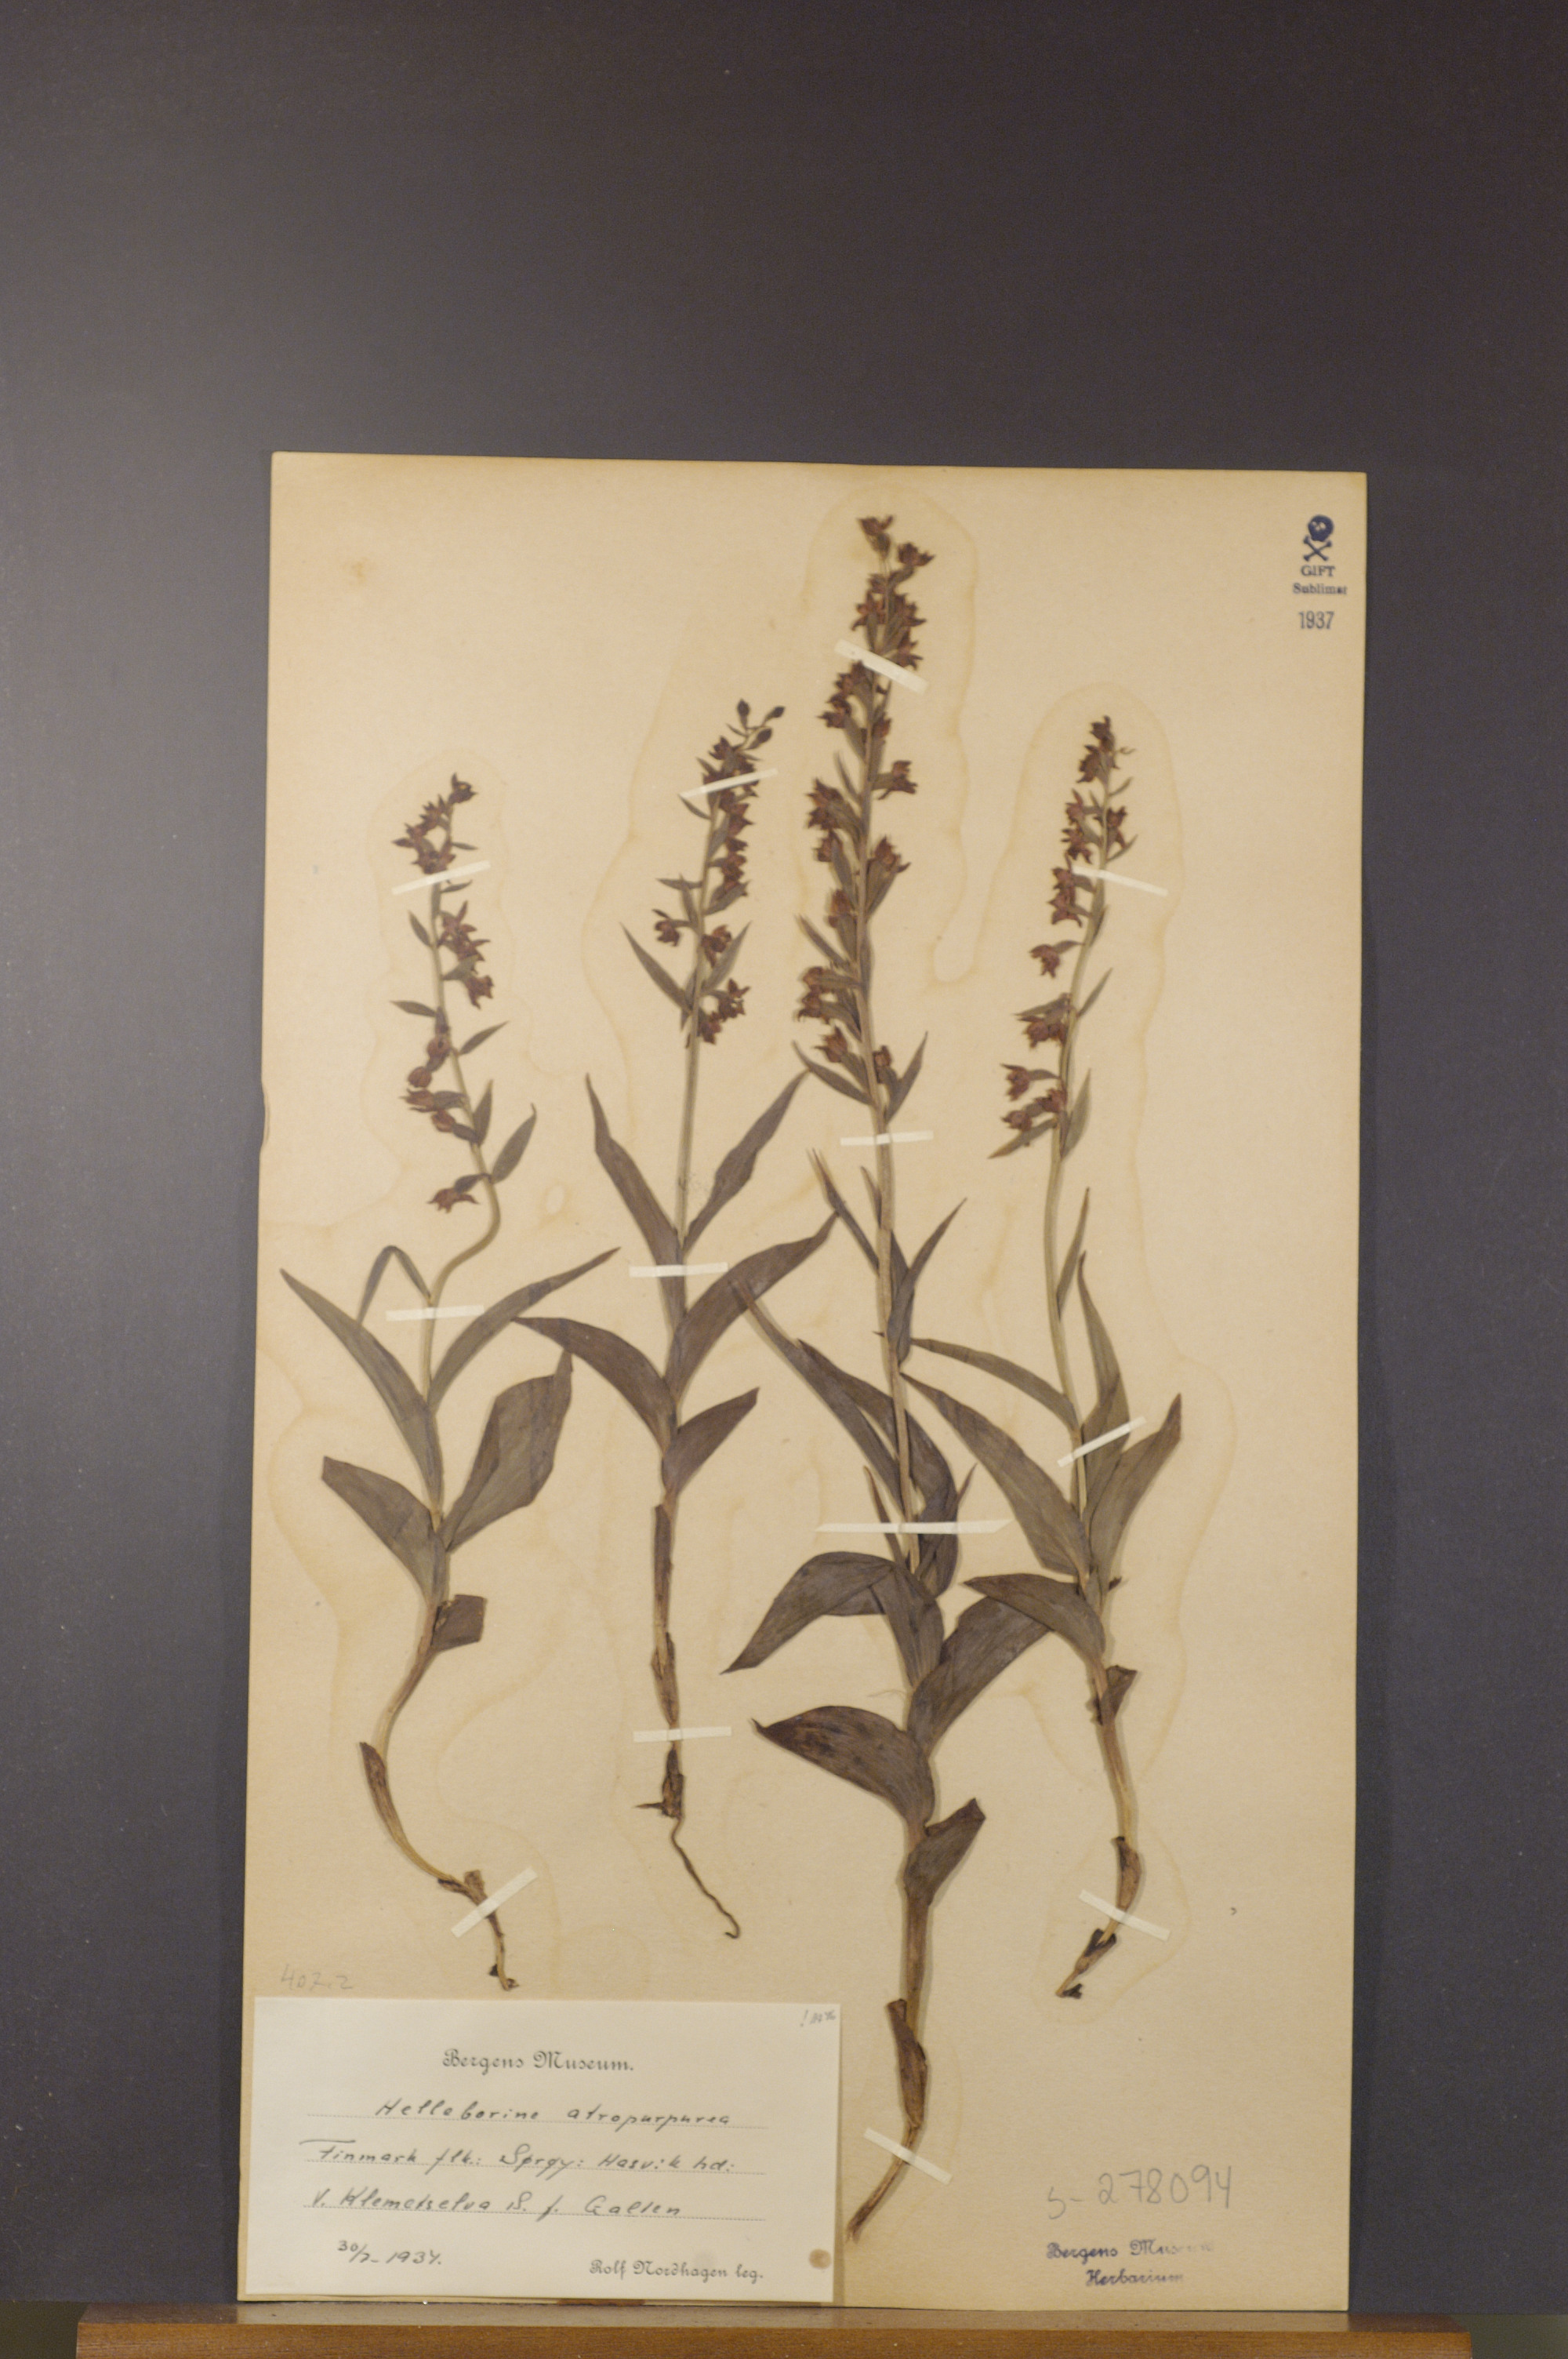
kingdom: Plantae
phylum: Tracheophyta
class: Liliopsida
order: Asparagales
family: Orchidaceae
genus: Epipactis
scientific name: Epipactis atrorubens
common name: Dark-red helleborine
